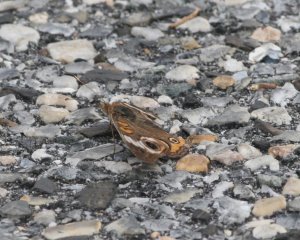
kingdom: Animalia
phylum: Arthropoda
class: Insecta
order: Lepidoptera
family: Nymphalidae
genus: Junonia
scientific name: Junonia coenia
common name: Common Buckeye
